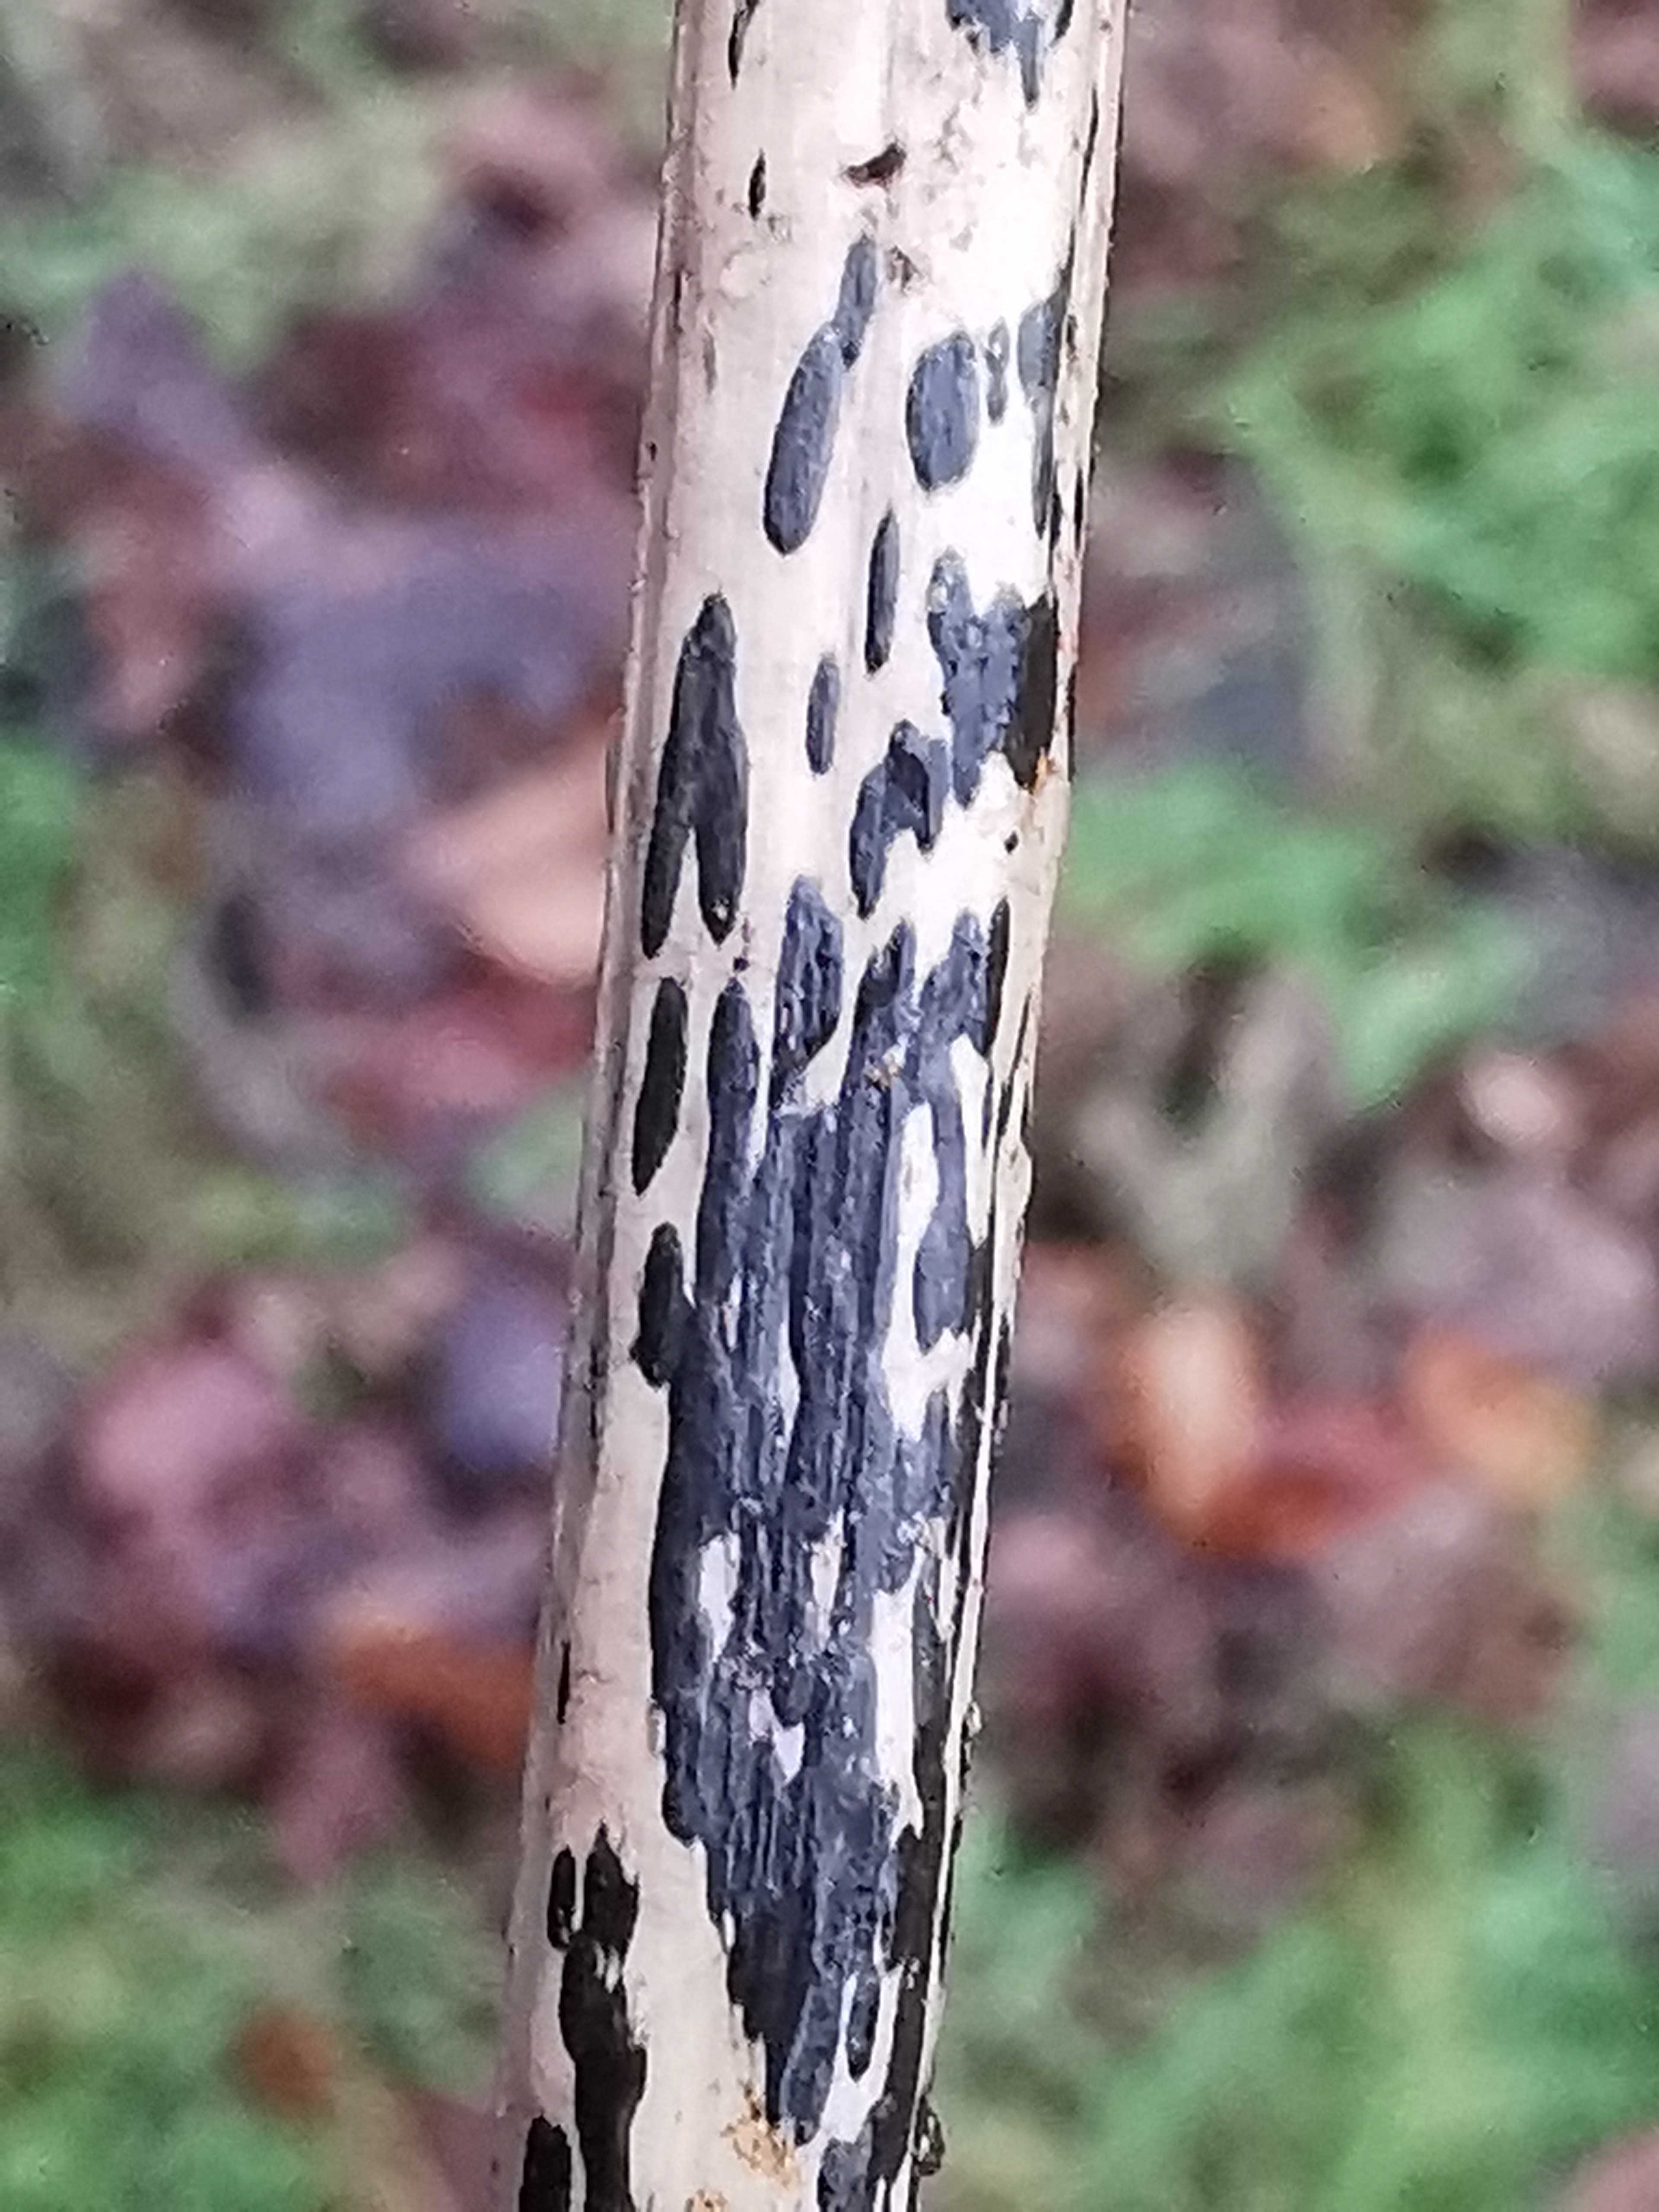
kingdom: Fungi
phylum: Ascomycota
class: Dothideomycetes
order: Pleosporales
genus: Rhopographus
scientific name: Rhopographus filicinus
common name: Bracken map
